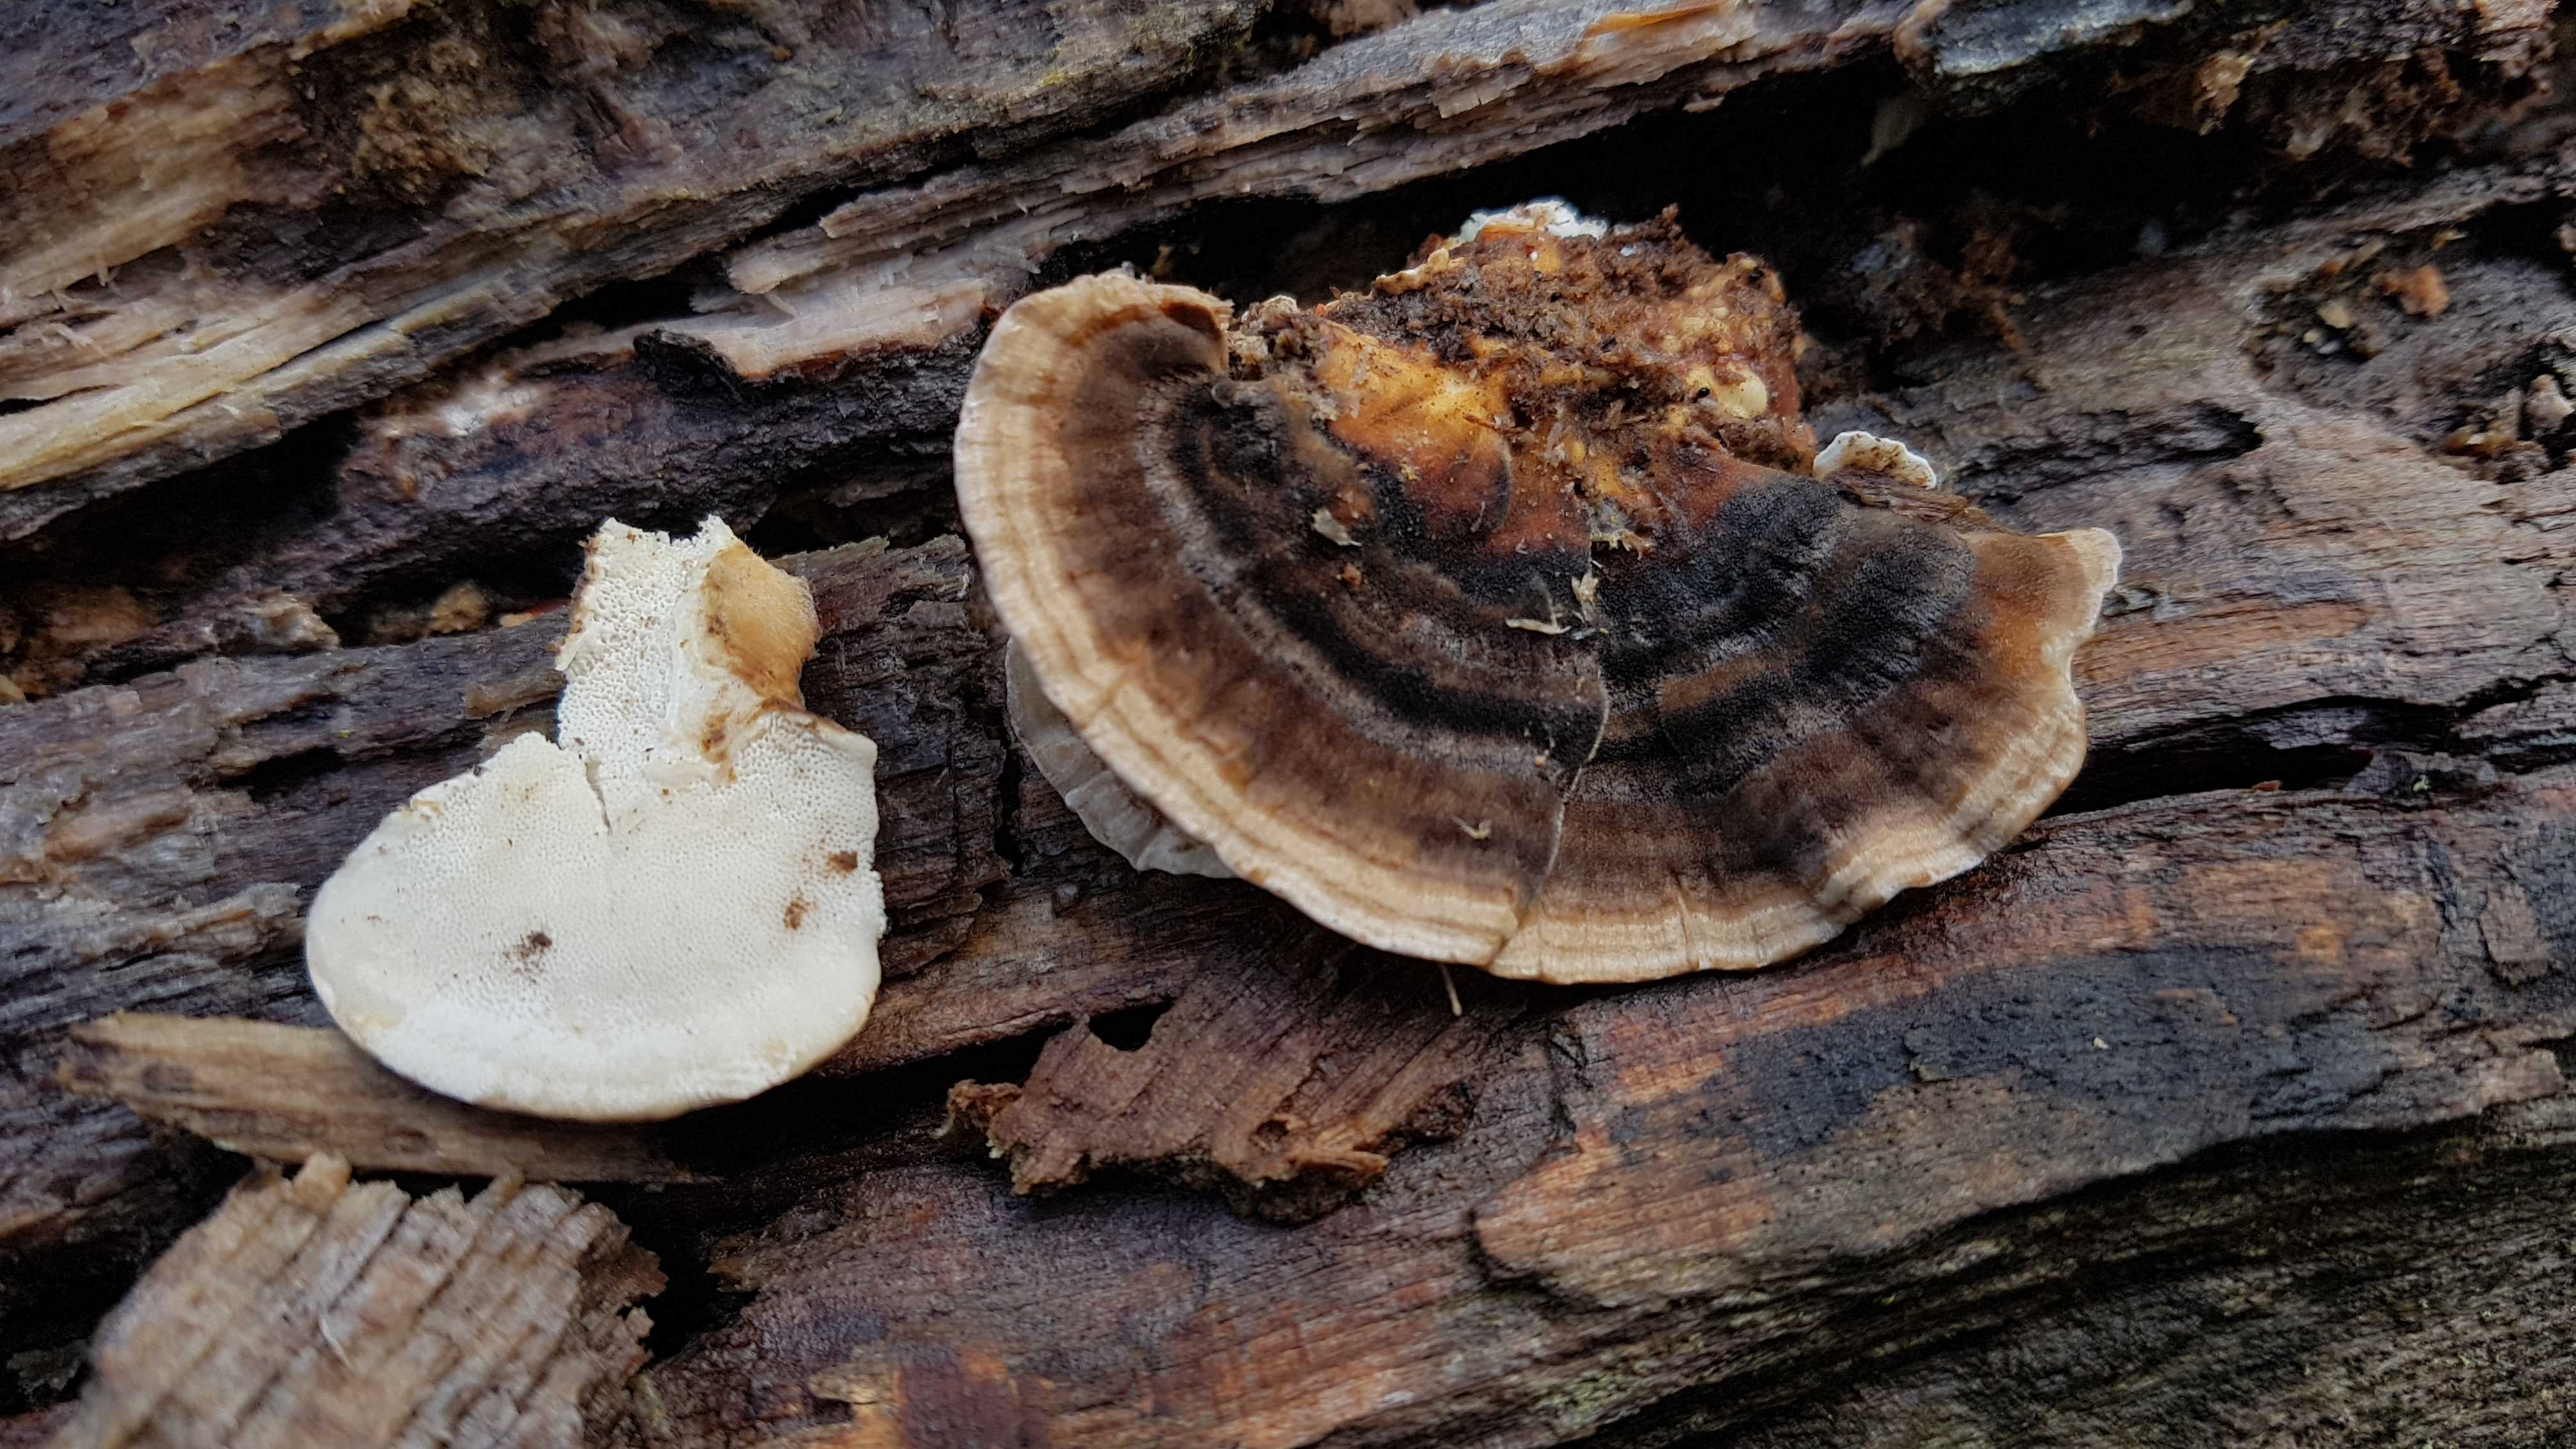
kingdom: Fungi
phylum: Basidiomycota
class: Agaricomycetes
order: Polyporales
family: Polyporaceae
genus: Trametes
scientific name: Trametes versicolor
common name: broget læderporesvamp
